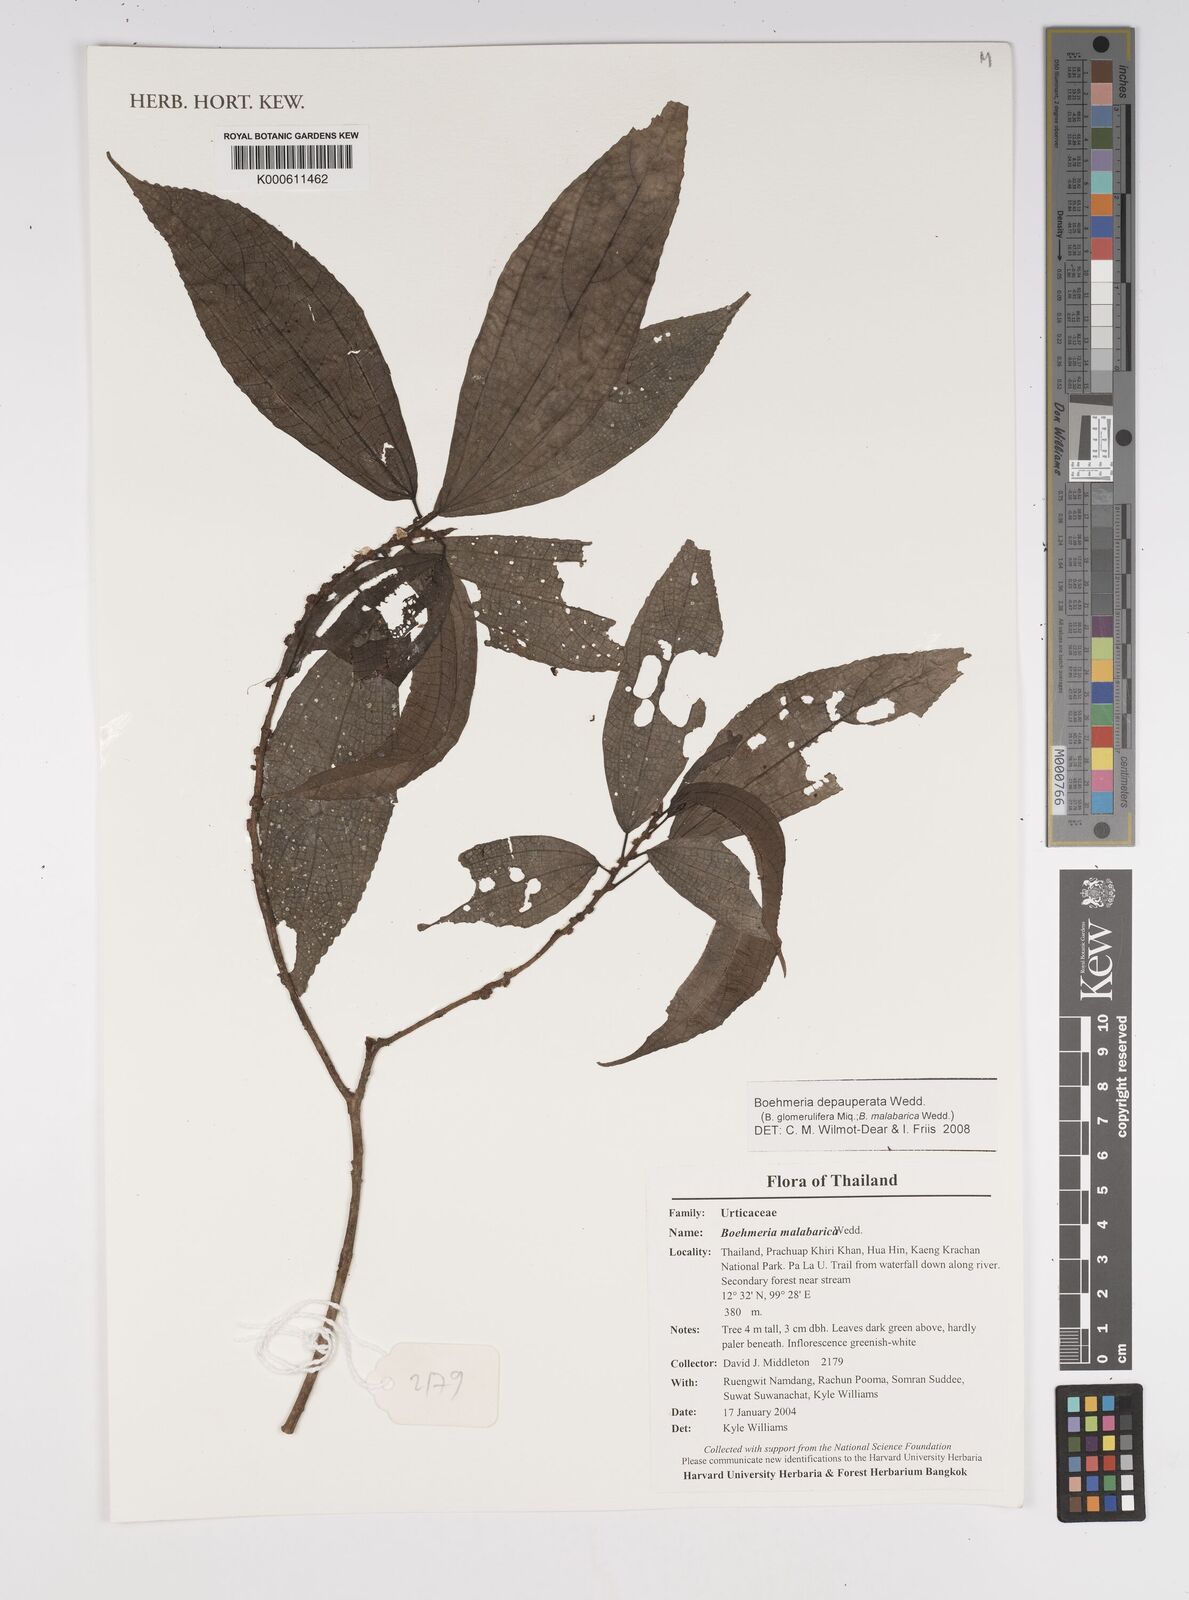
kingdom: Plantae
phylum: Tracheophyta
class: Magnoliopsida
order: Rosales
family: Urticaceae
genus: Boehmeria
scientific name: Boehmeria depauperata
